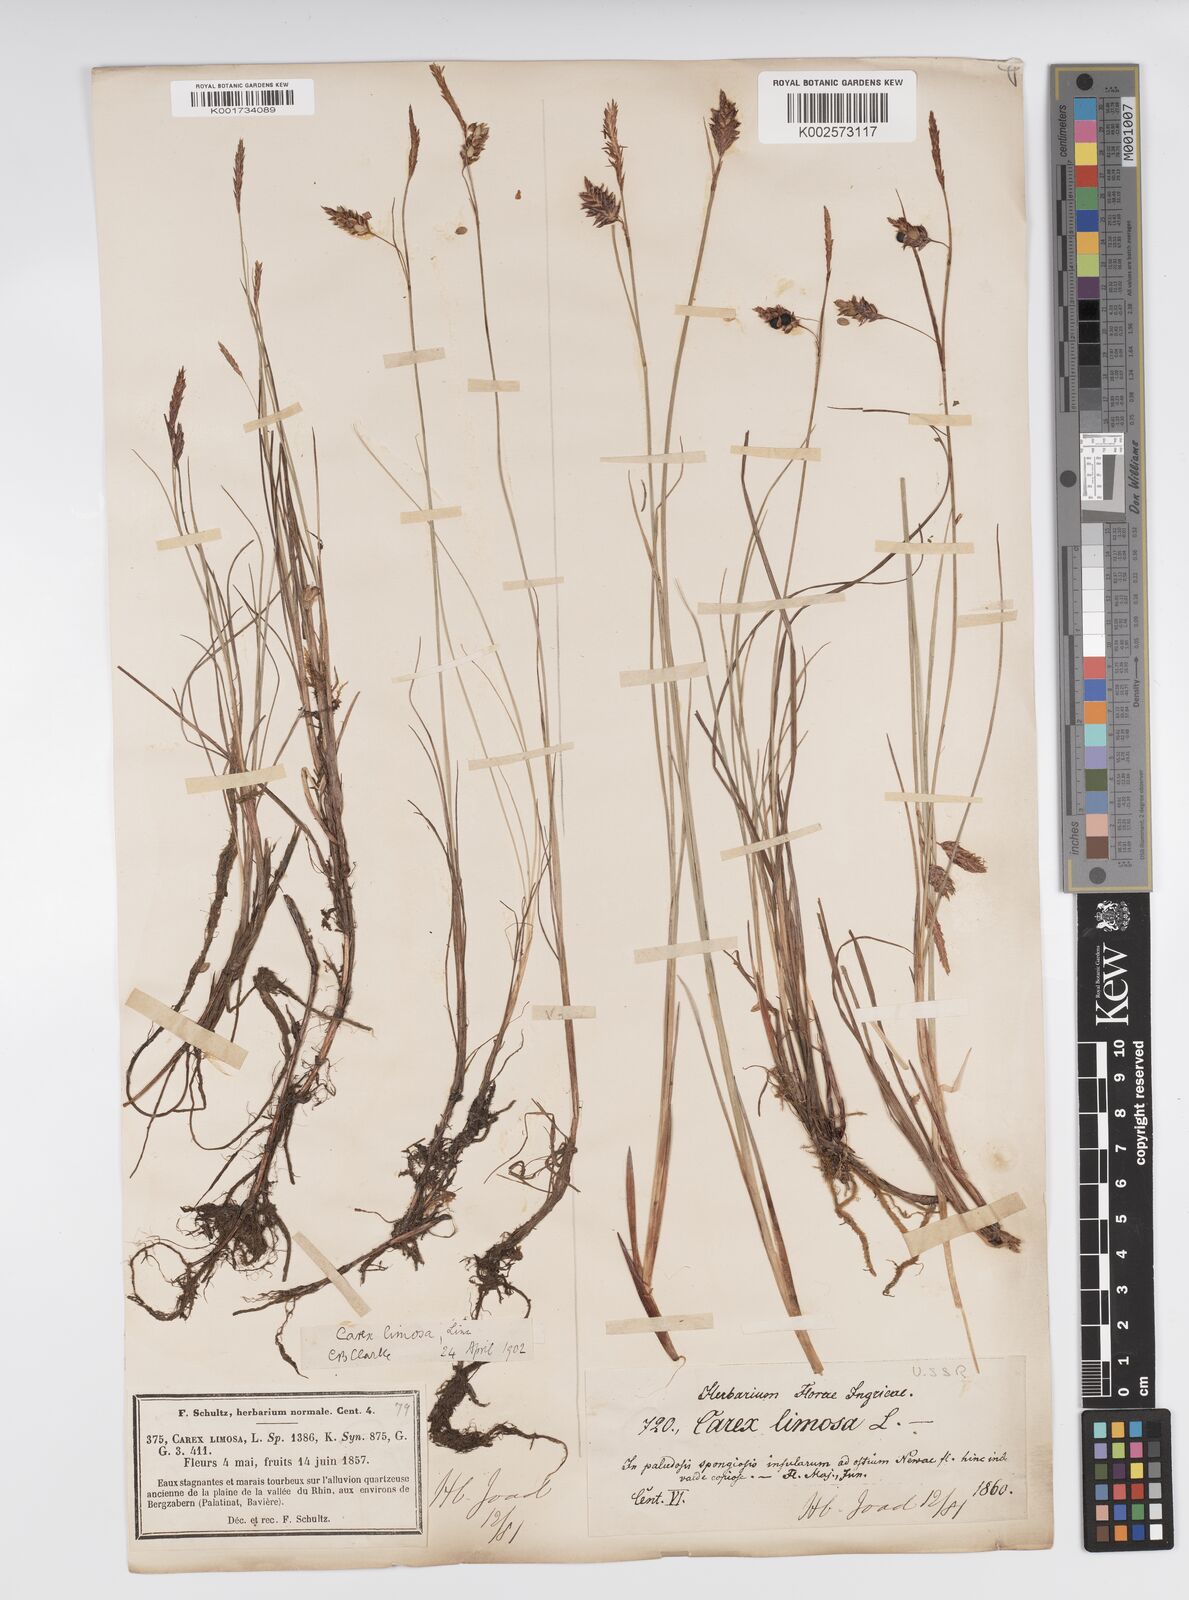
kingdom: Plantae
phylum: Tracheophyta
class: Liliopsida
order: Poales
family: Cyperaceae
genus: Carex
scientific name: Carex limosa
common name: Bog sedge
